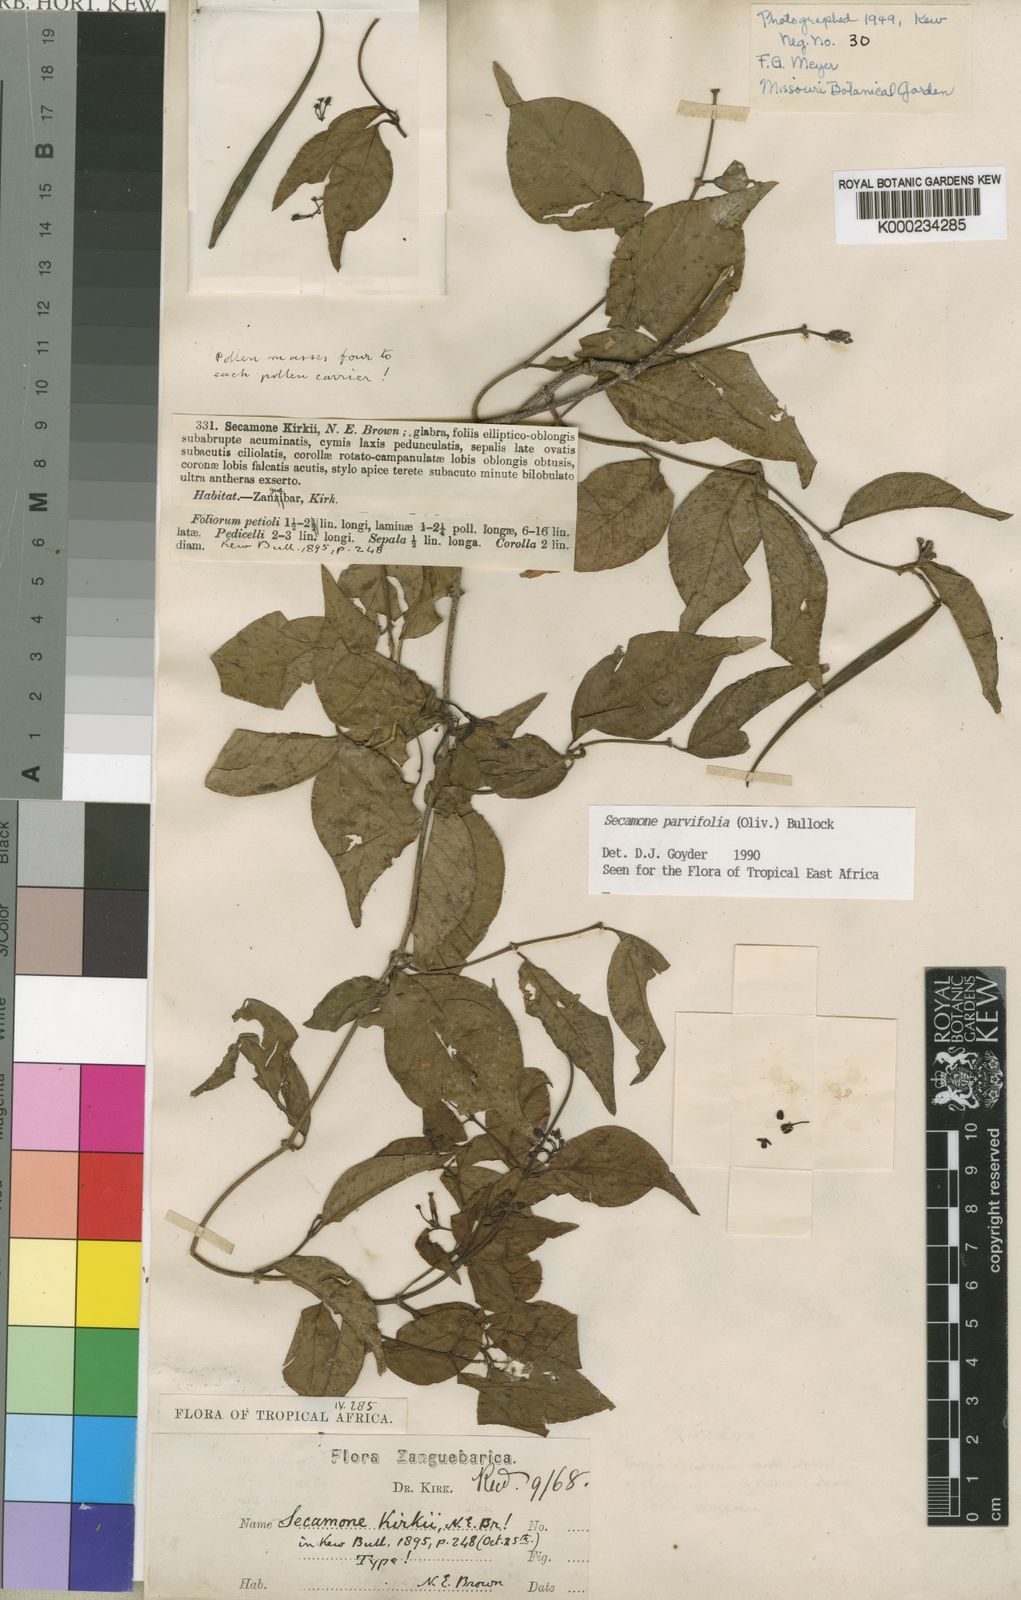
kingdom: Plantae
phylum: Tracheophyta
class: Magnoliopsida
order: Gentianales
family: Apocynaceae
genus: Secamone
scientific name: Secamone schweinfurthii
